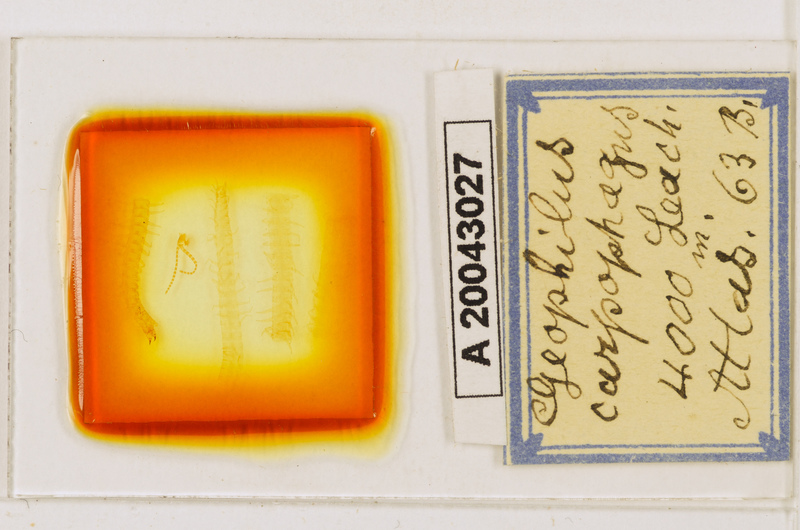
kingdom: Animalia
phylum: Arthropoda
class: Chilopoda
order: Geophilomorpha
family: Geophilidae
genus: Geophilus
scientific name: Geophilus carpophagus
